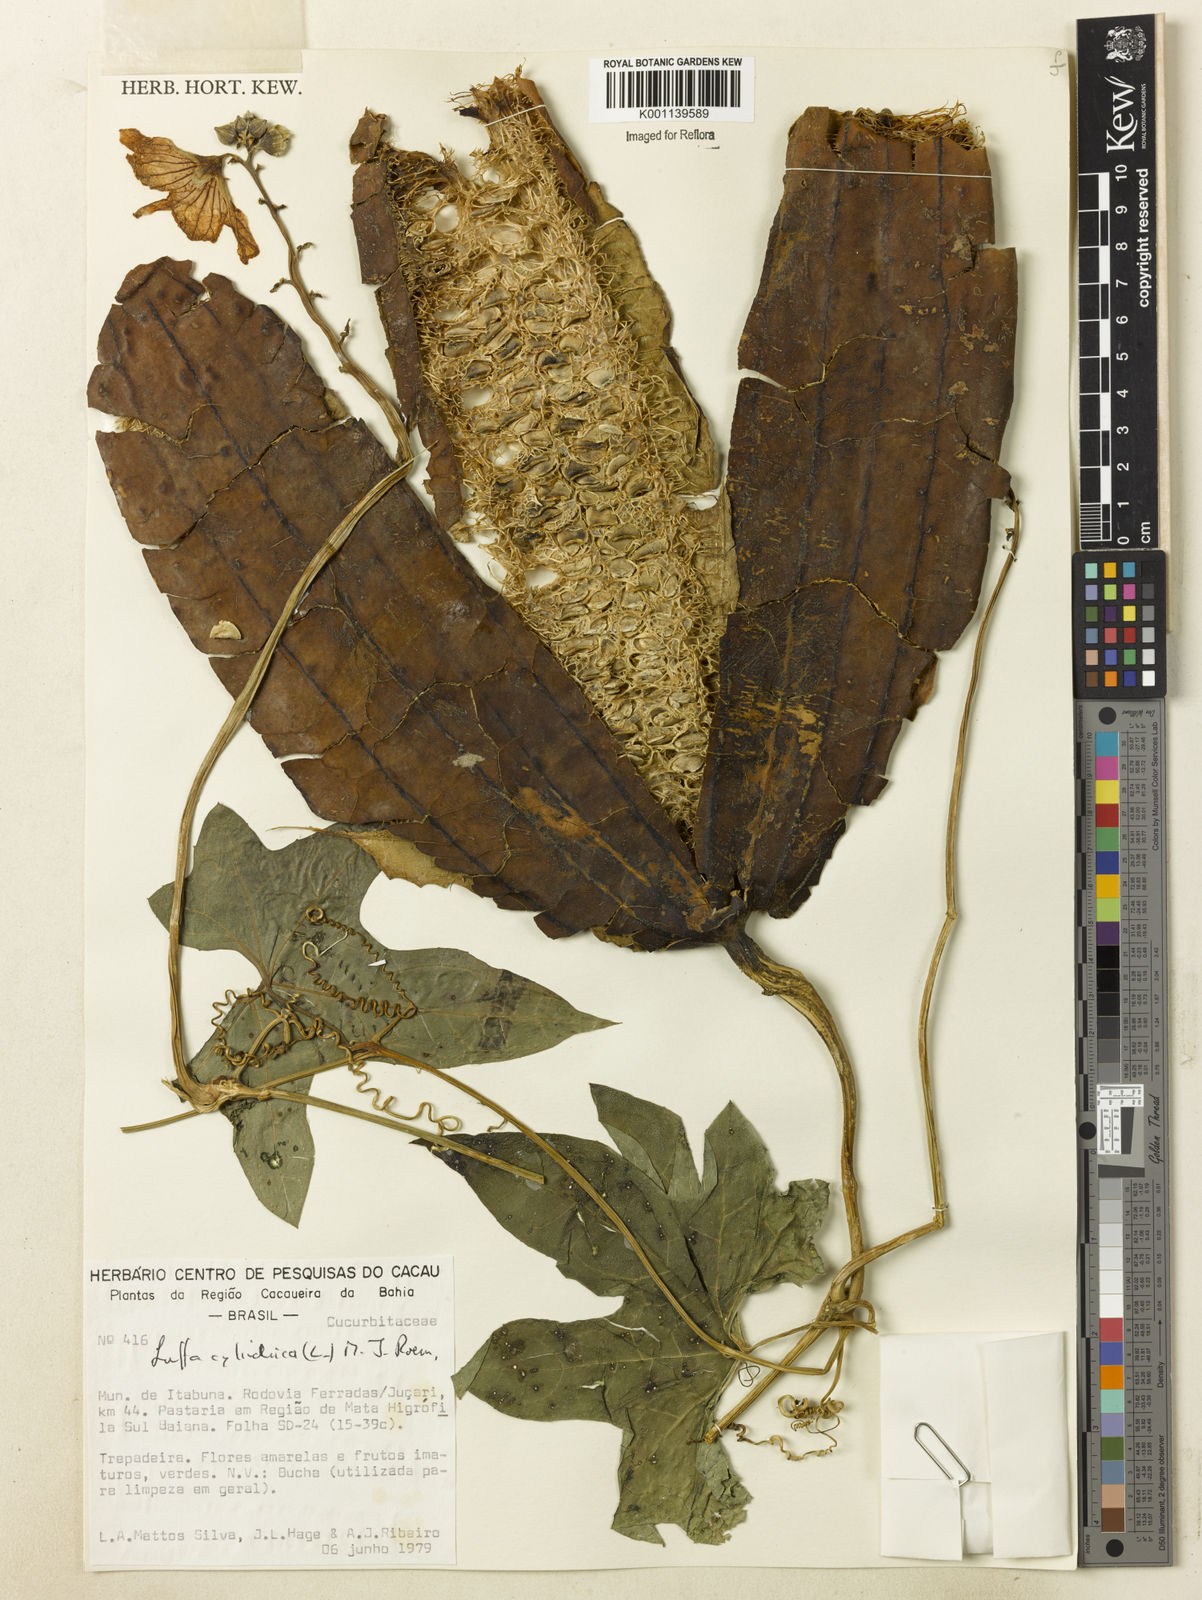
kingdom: Plantae
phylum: Tracheophyta
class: Magnoliopsida
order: Cucurbitales
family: Cucurbitaceae
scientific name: Cucurbitaceae
